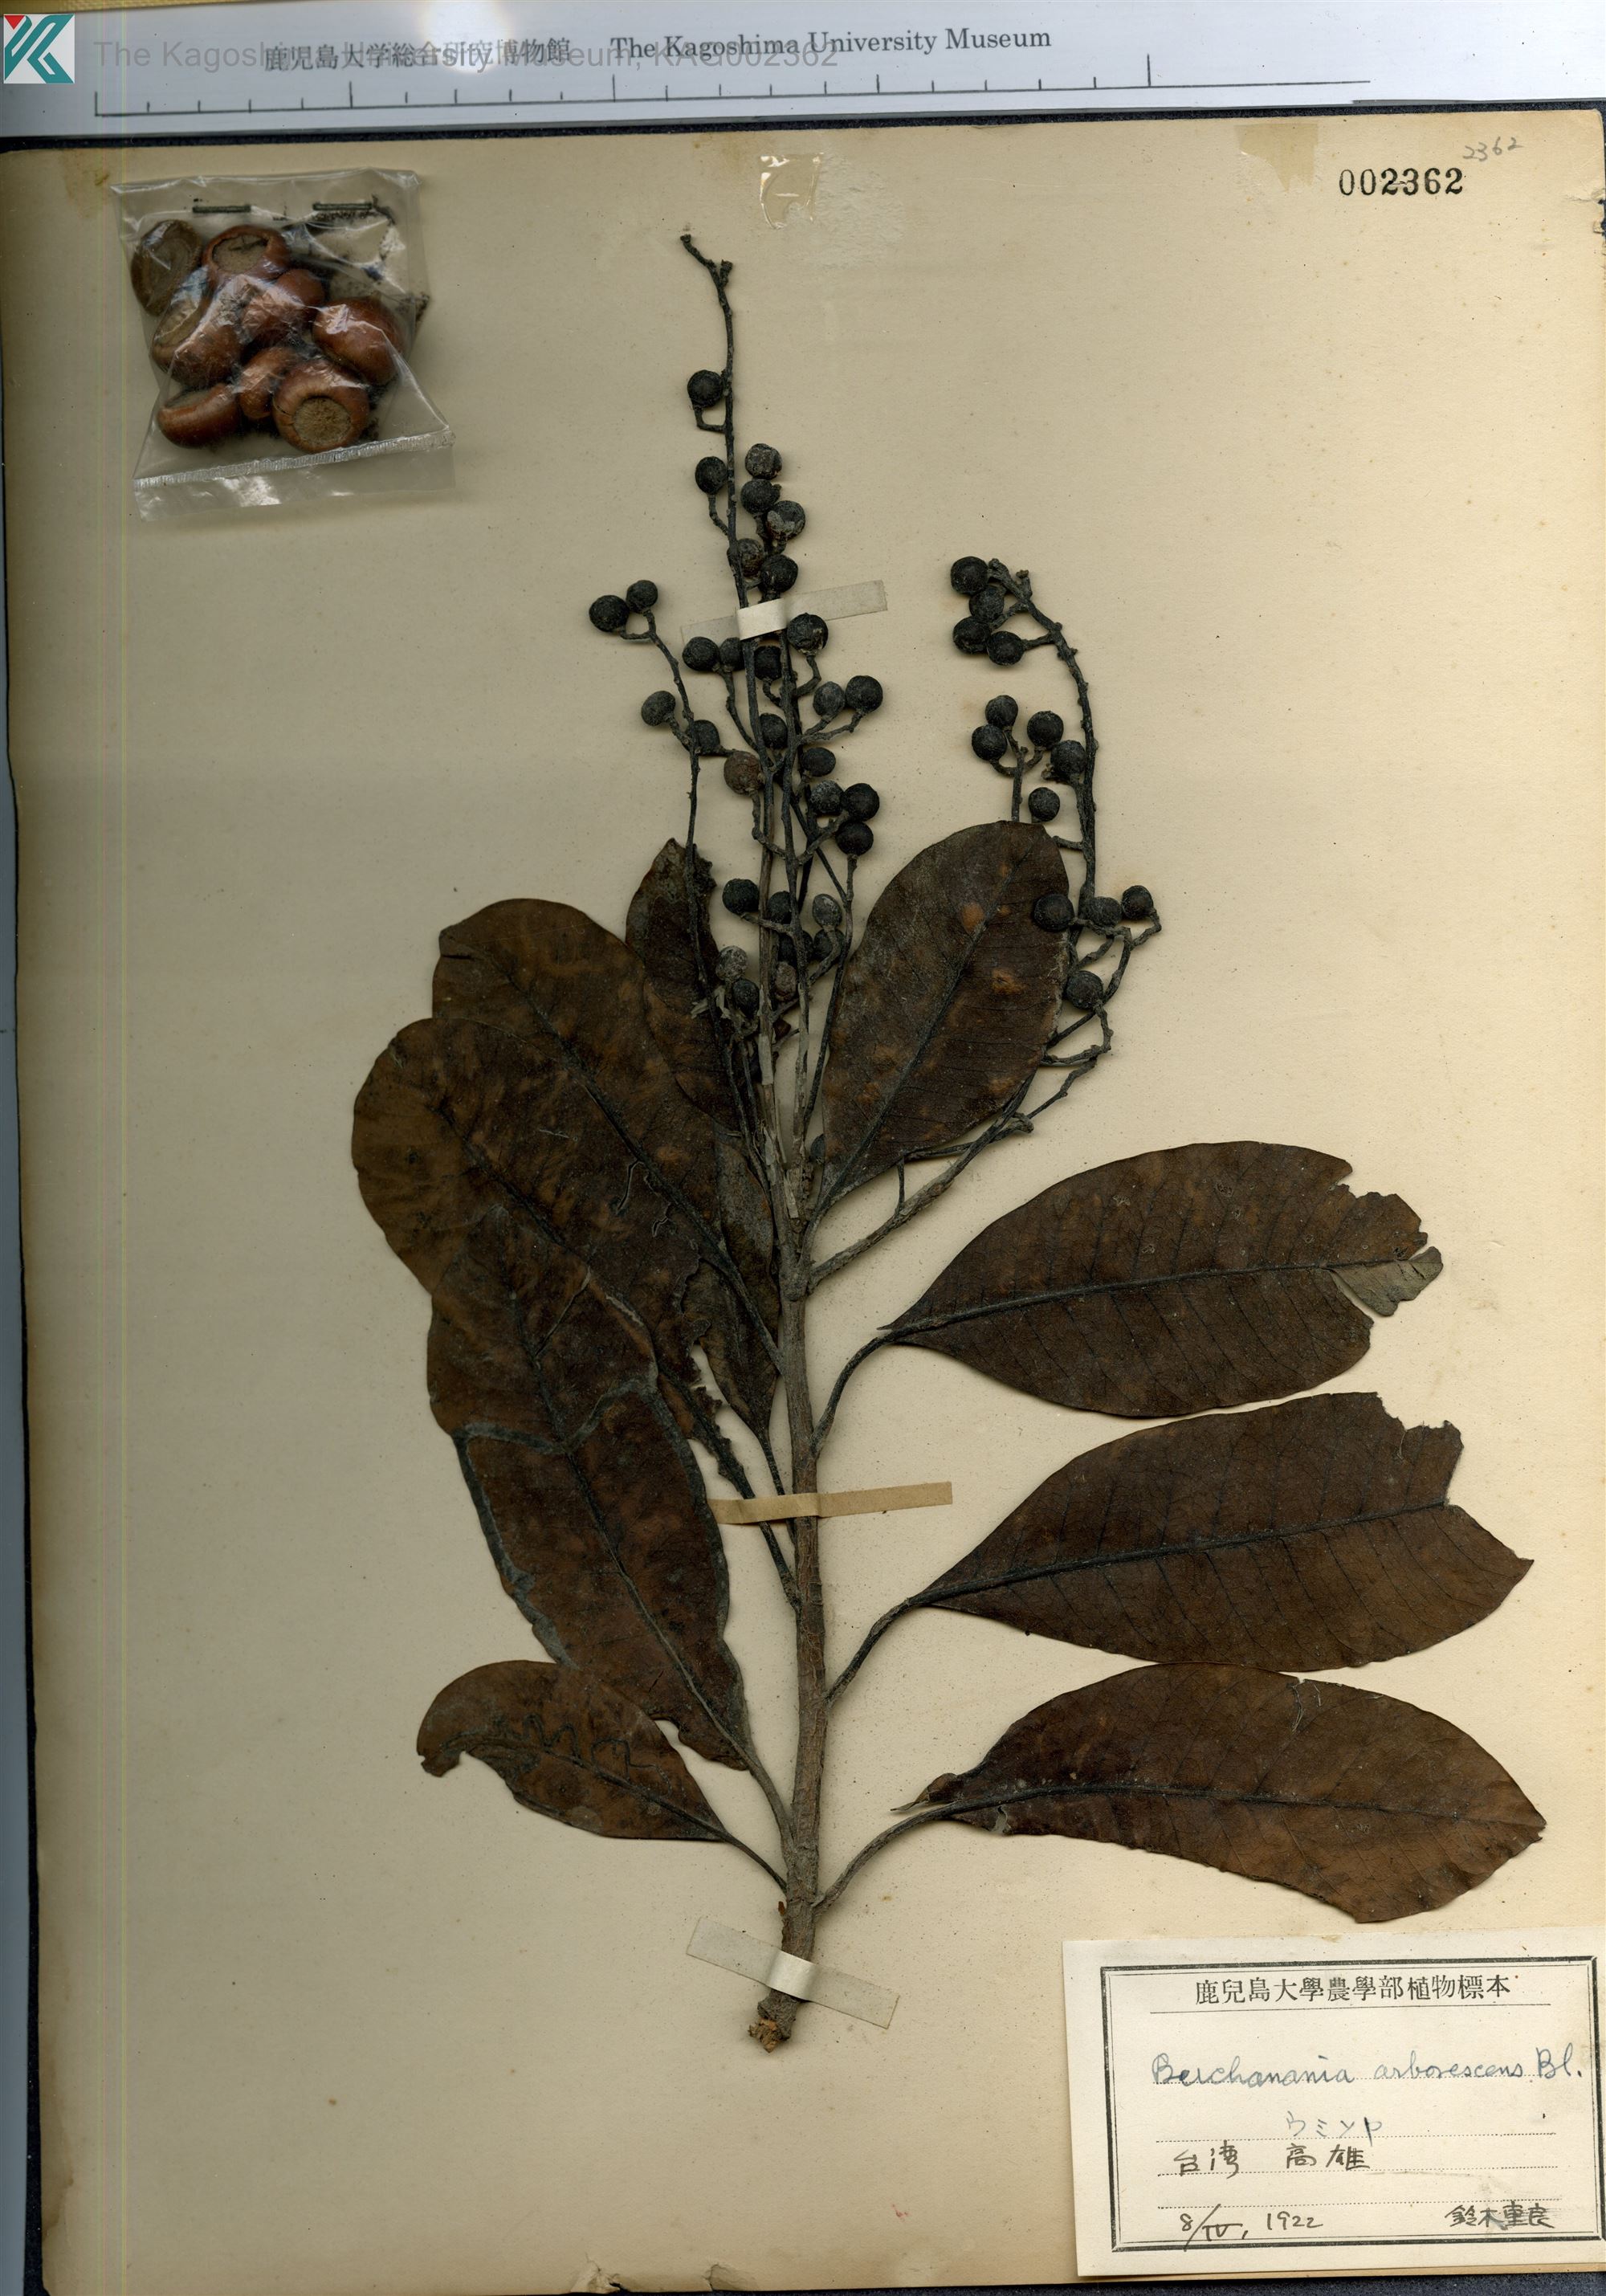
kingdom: Plantae
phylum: Tracheophyta
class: Magnoliopsida
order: Sapindales
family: Anacardiaceae
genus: Buchanania
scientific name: Buchanania arborescens
